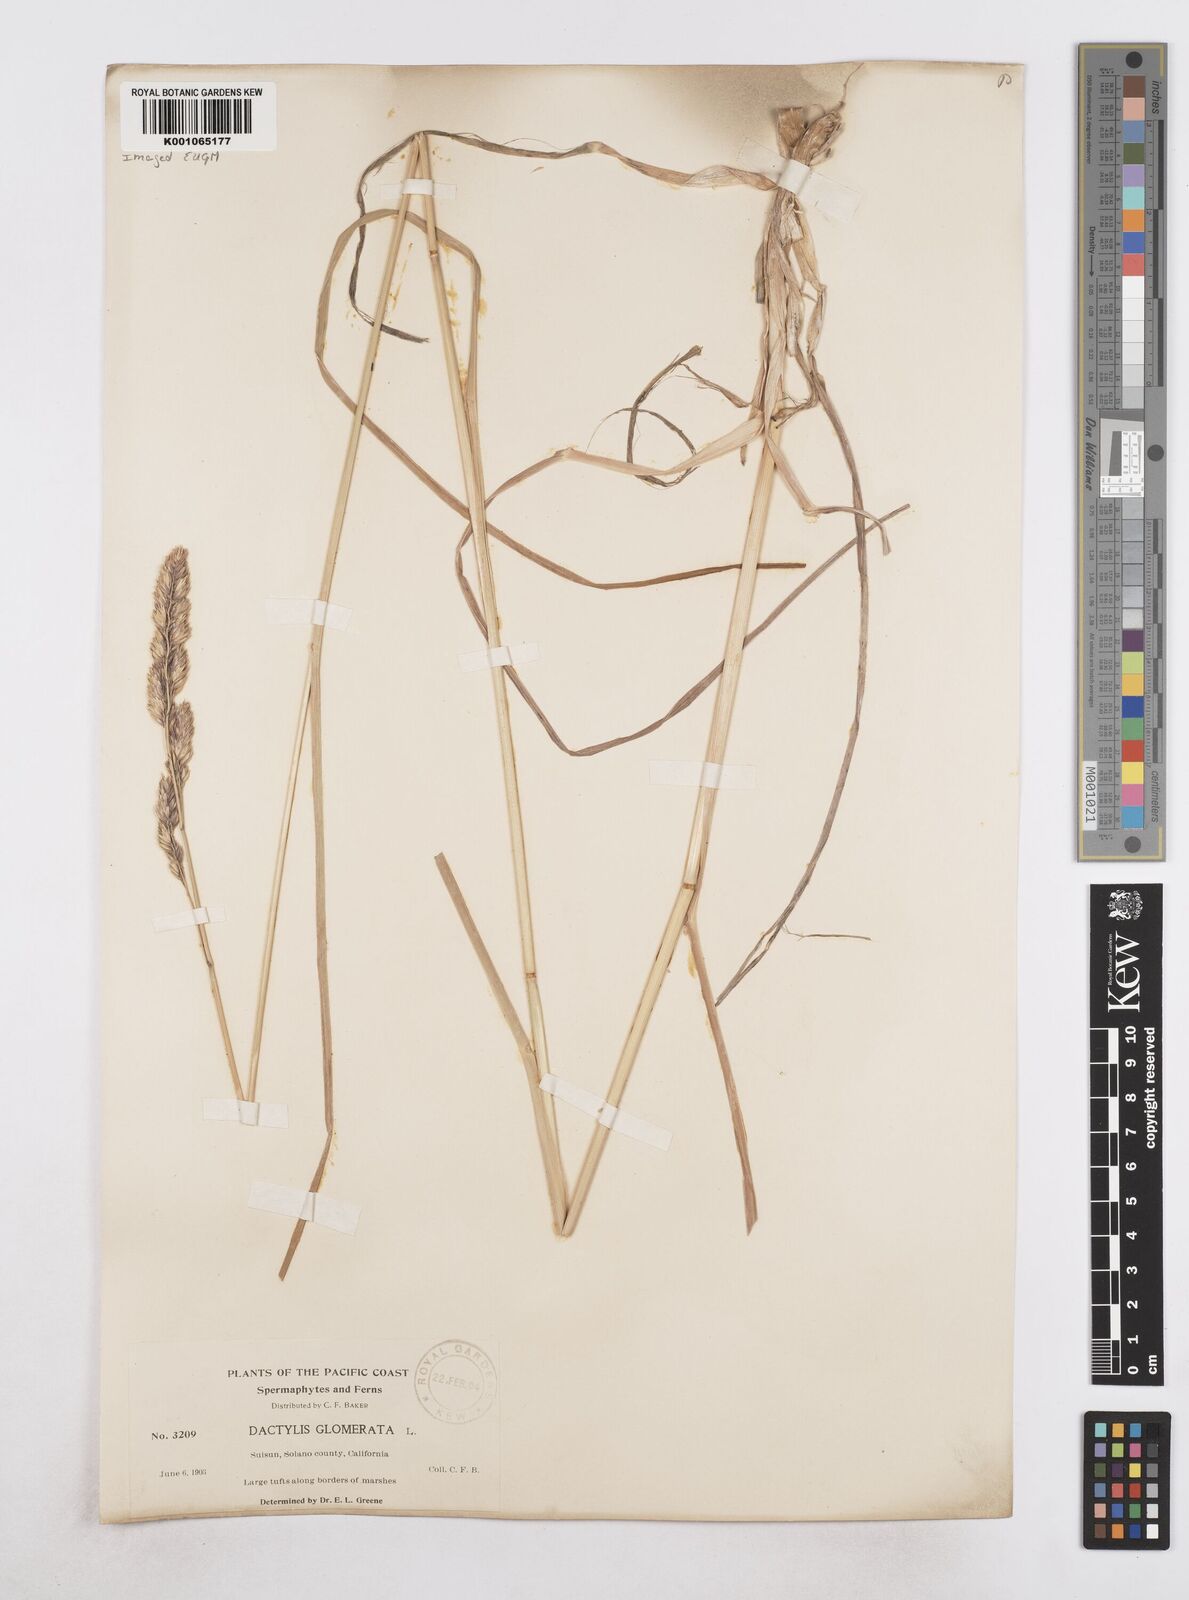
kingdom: Plantae
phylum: Tracheophyta
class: Liliopsida
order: Poales
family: Poaceae
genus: Dactylis
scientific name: Dactylis glomerata
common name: Orchardgrass
